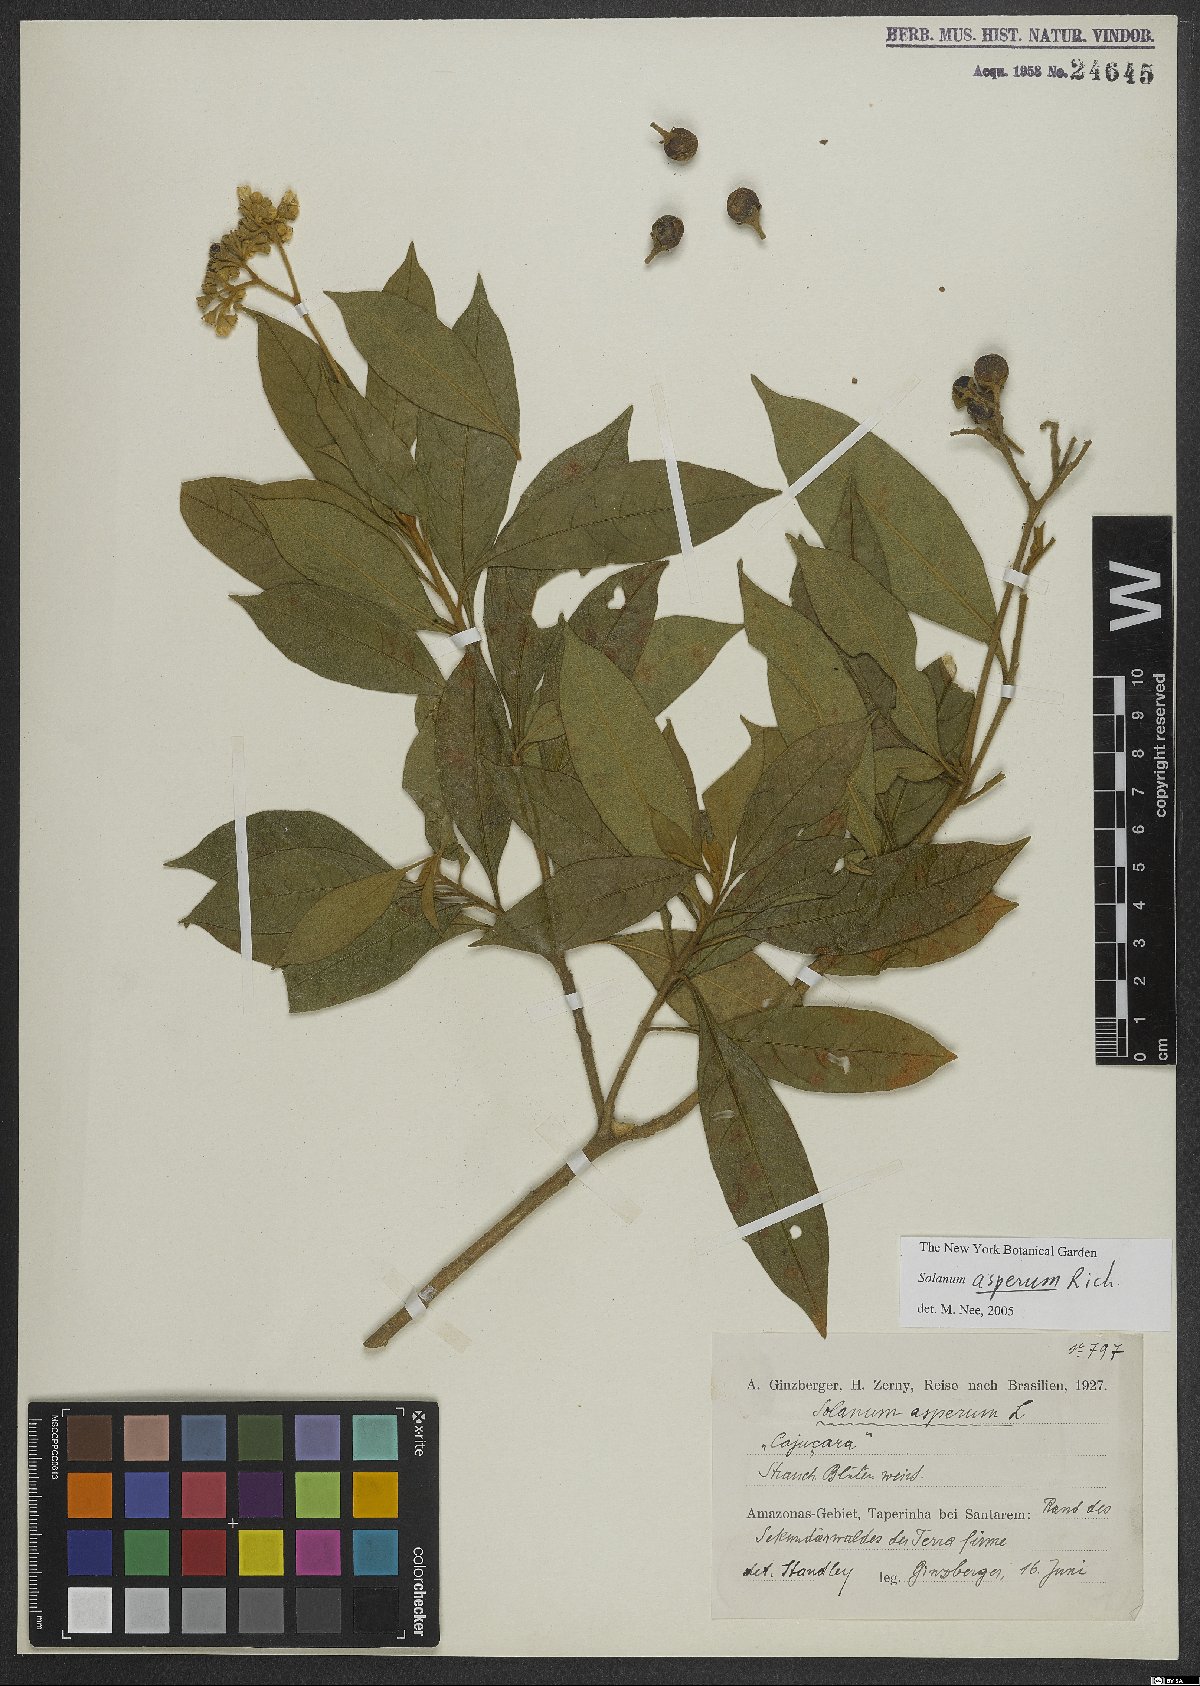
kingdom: Plantae
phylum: Tracheophyta
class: Magnoliopsida
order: Solanales
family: Solanaceae
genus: Solanum
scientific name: Solanum asperum
